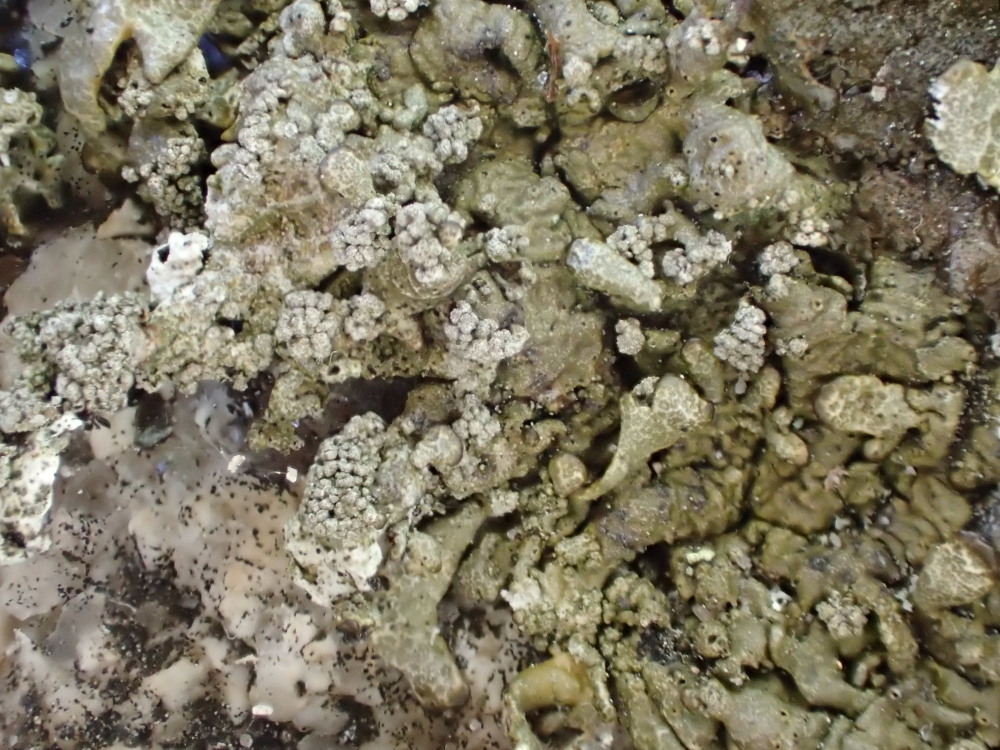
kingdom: Fungi
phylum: Ascomycota
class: Lecanoromycetes
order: Lecanorales
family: Parmeliaceae
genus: Xanthoparmelia
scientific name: Xanthoparmelia verruculifera
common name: småknoppet skållav
